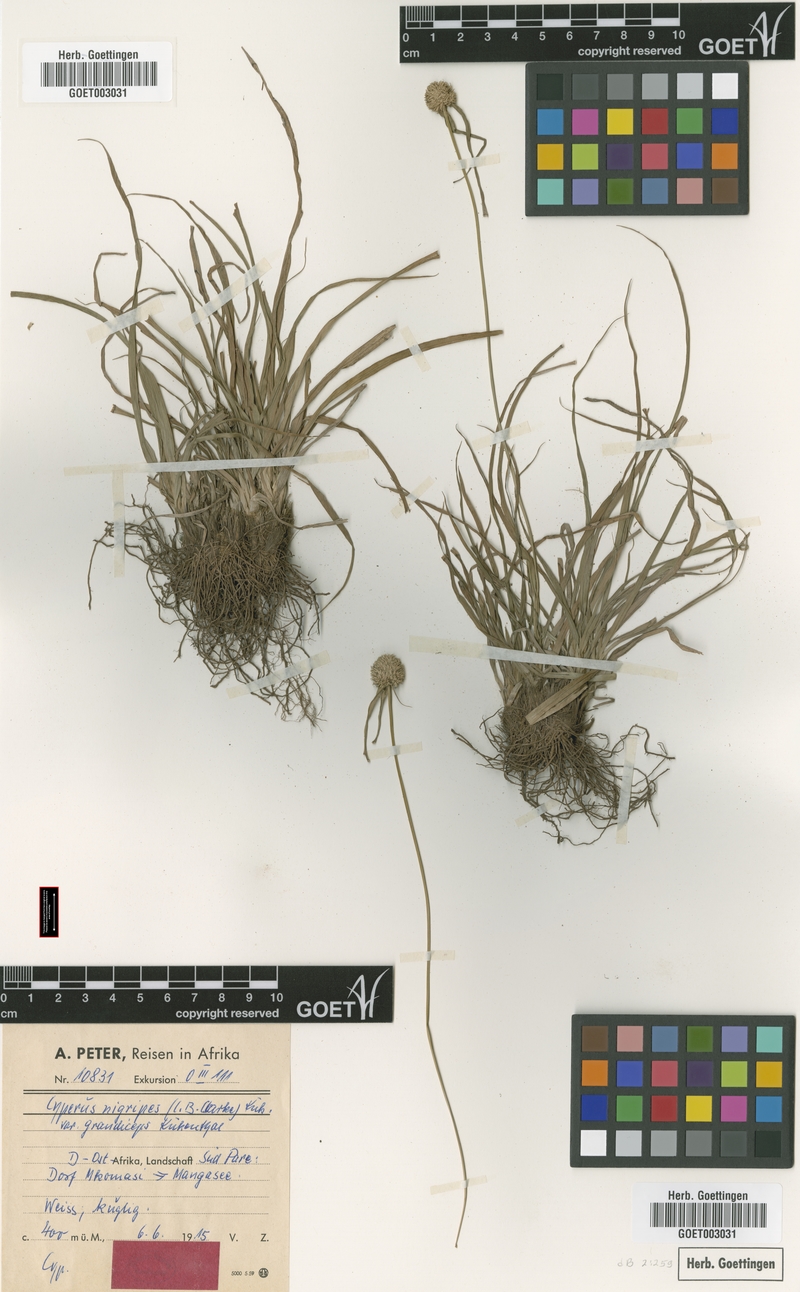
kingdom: Plantae
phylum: Tracheophyta
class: Liliopsida
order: Poales
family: Cyperaceae
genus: Cyperus
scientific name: Cyperus alatus
